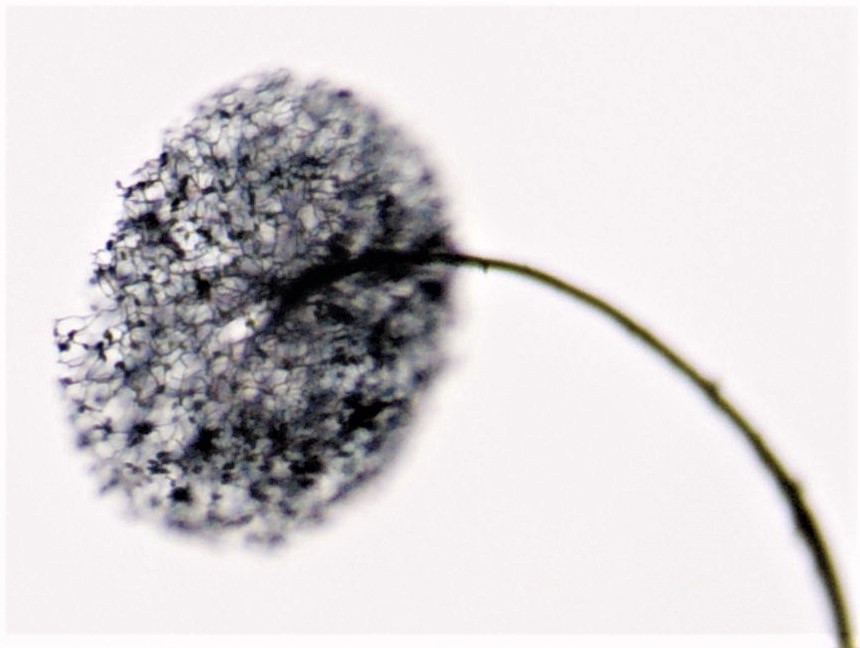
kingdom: Protozoa
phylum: Mycetozoa
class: Myxomycetes
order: Stemonitidales
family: Stemonitidaceae
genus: Comatricha
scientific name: Comatricha nigra
